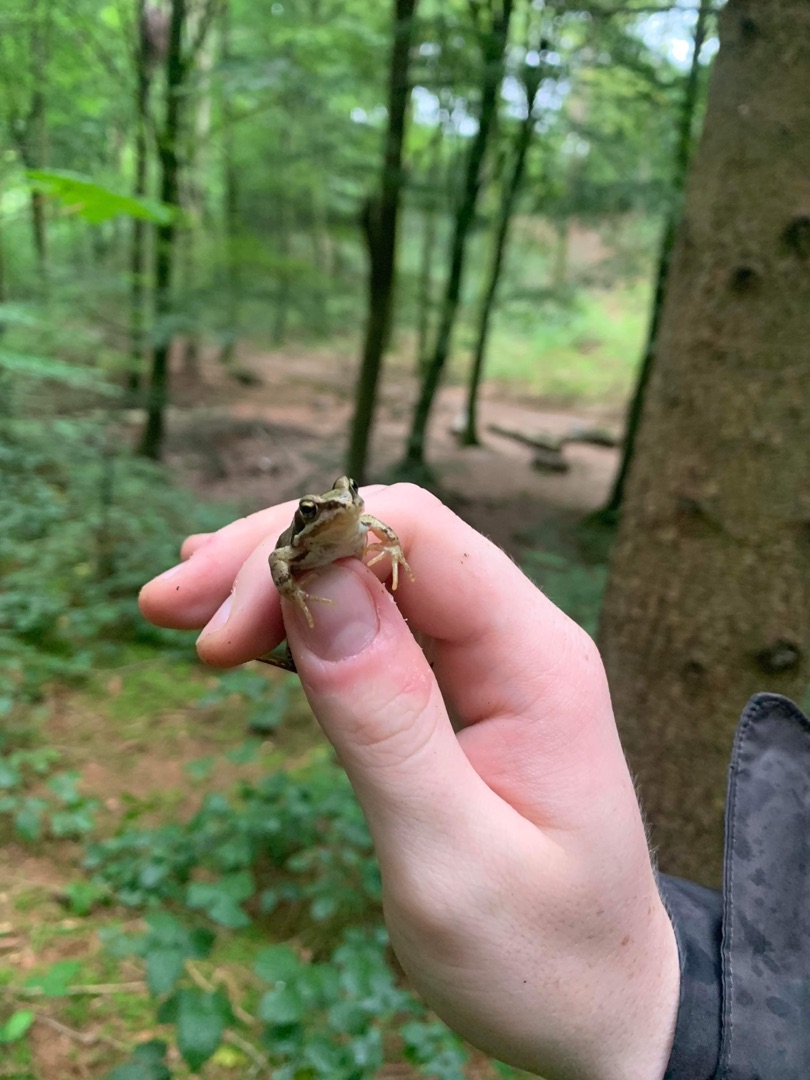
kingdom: Animalia
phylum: Chordata
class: Amphibia
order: Anura
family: Ranidae
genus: Rana
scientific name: Rana temporaria
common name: Butsnudet frø
